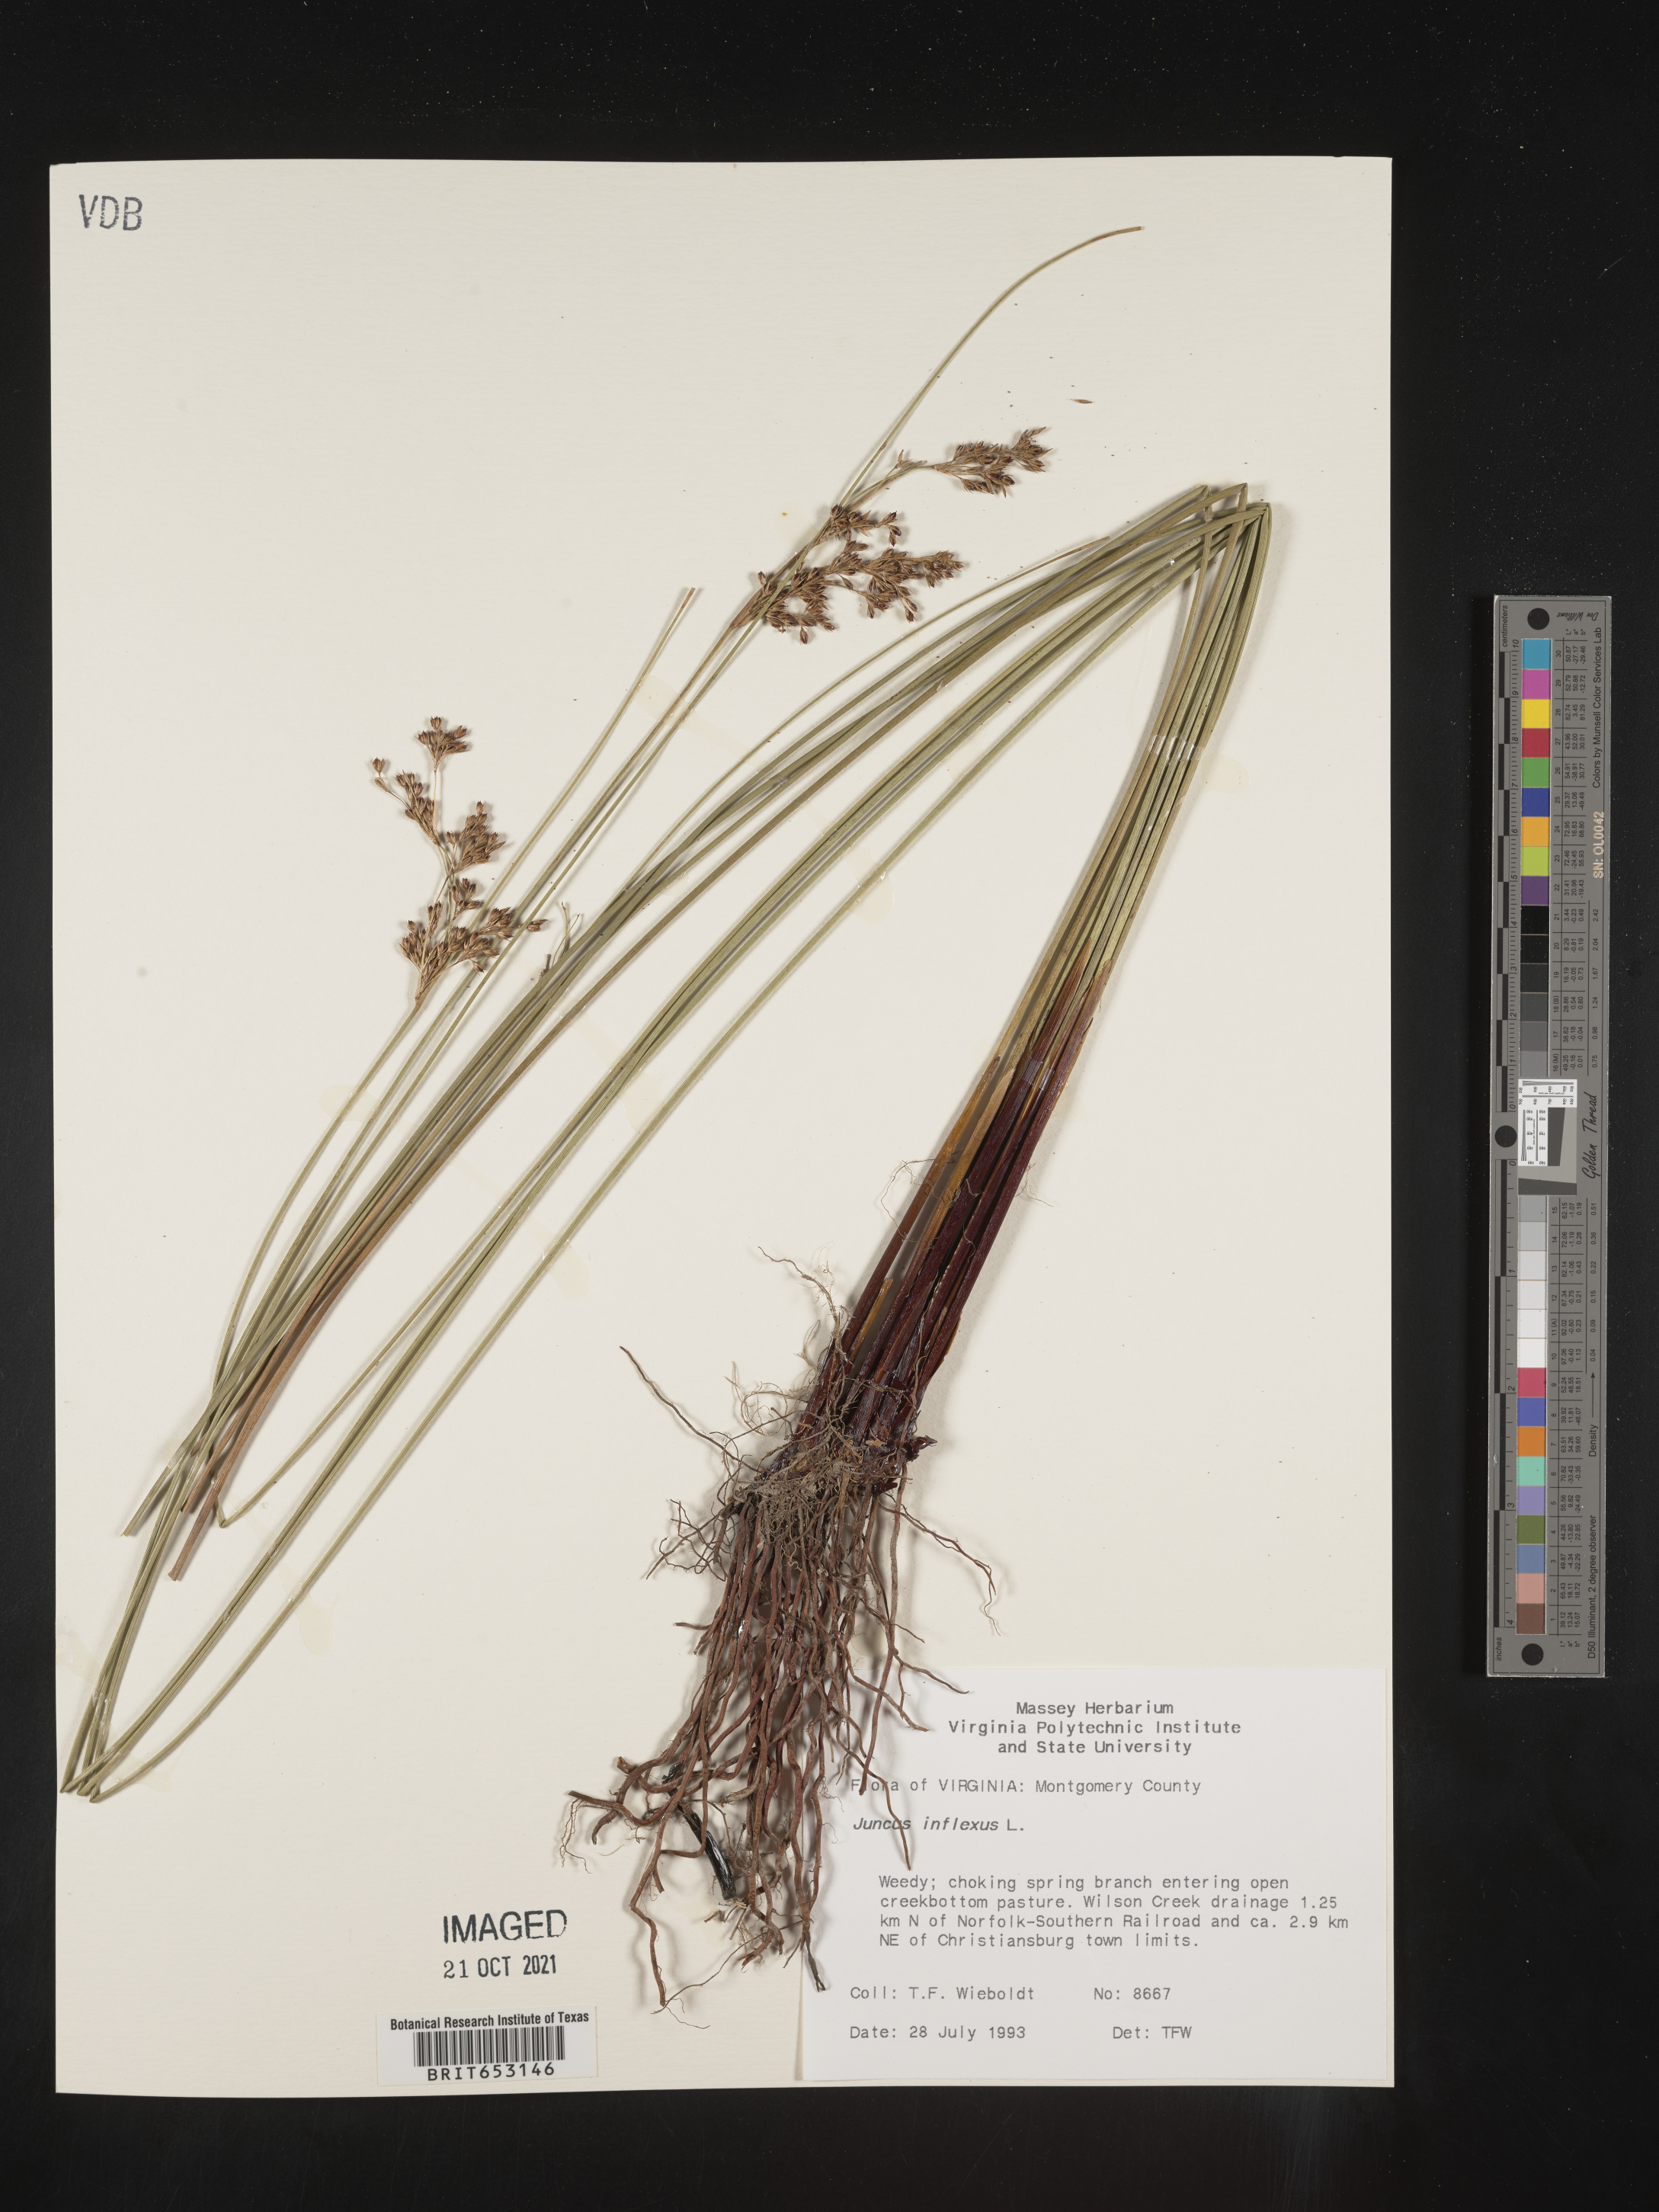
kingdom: Plantae
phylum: Tracheophyta
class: Liliopsida
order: Poales
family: Juncaceae
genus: Juncus
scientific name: Juncus inflexus
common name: Hard rush
